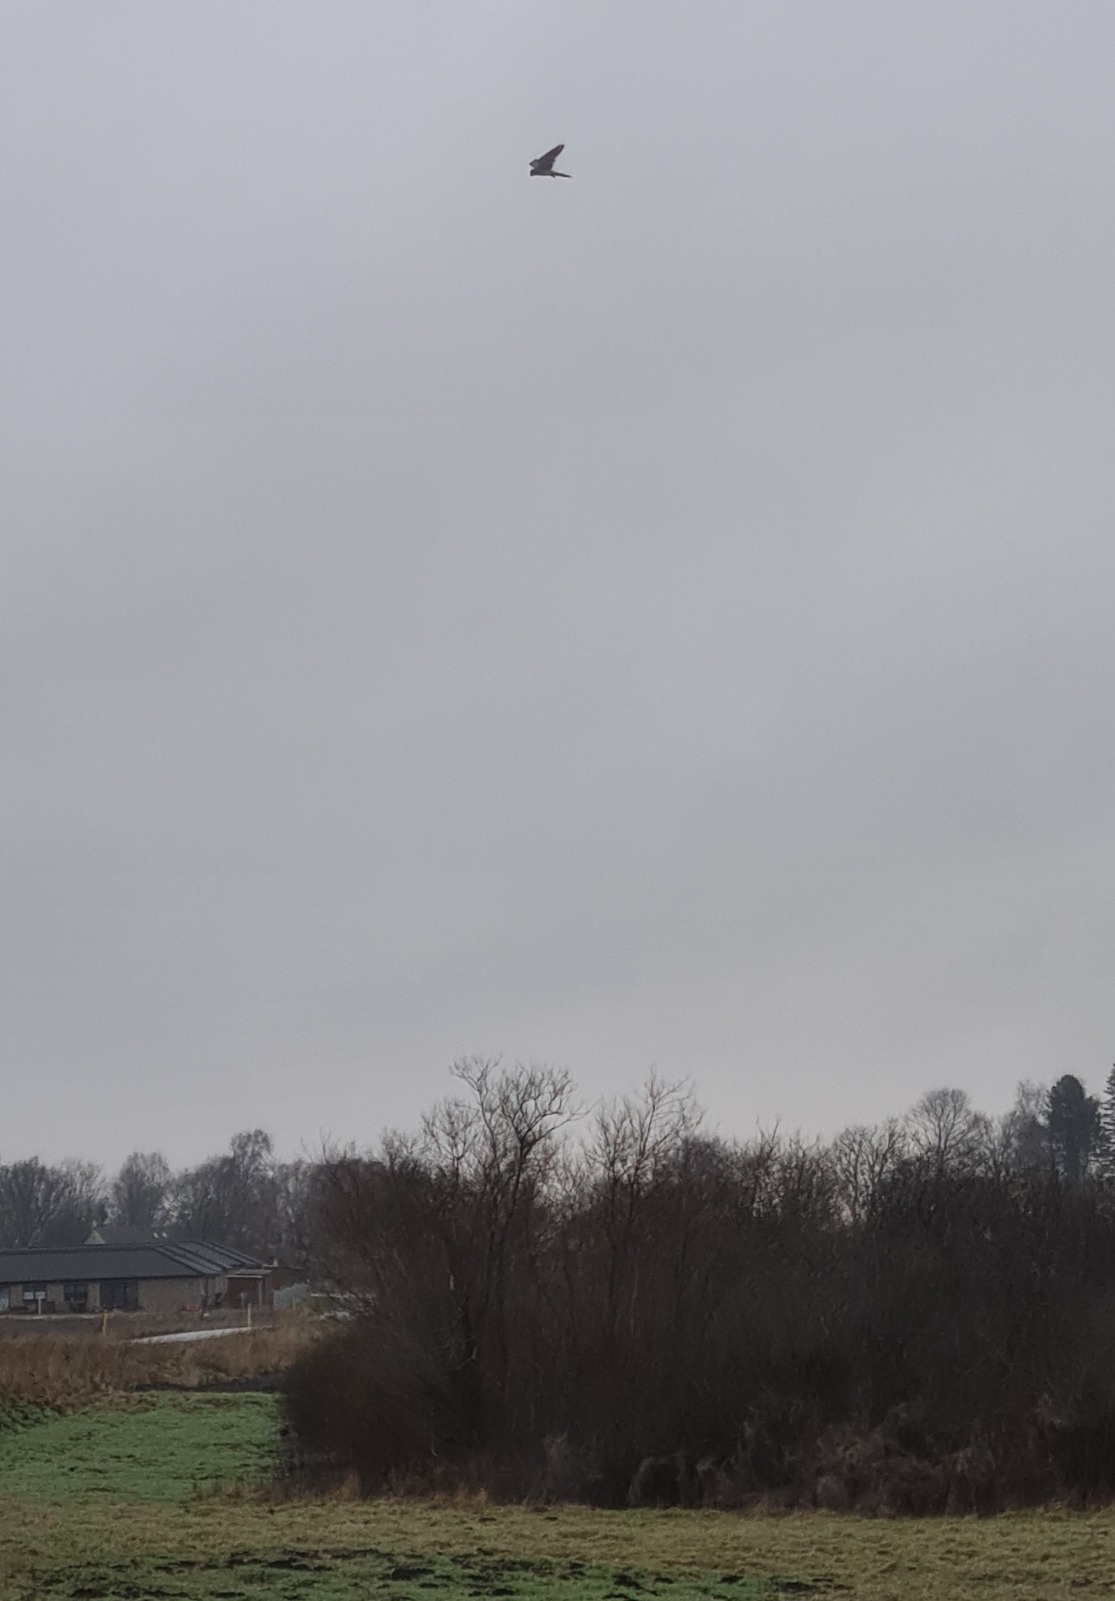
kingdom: Animalia
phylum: Chordata
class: Aves
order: Falconiformes
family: Falconidae
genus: Falco
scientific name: Falco tinnunculus
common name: Tårnfalk
